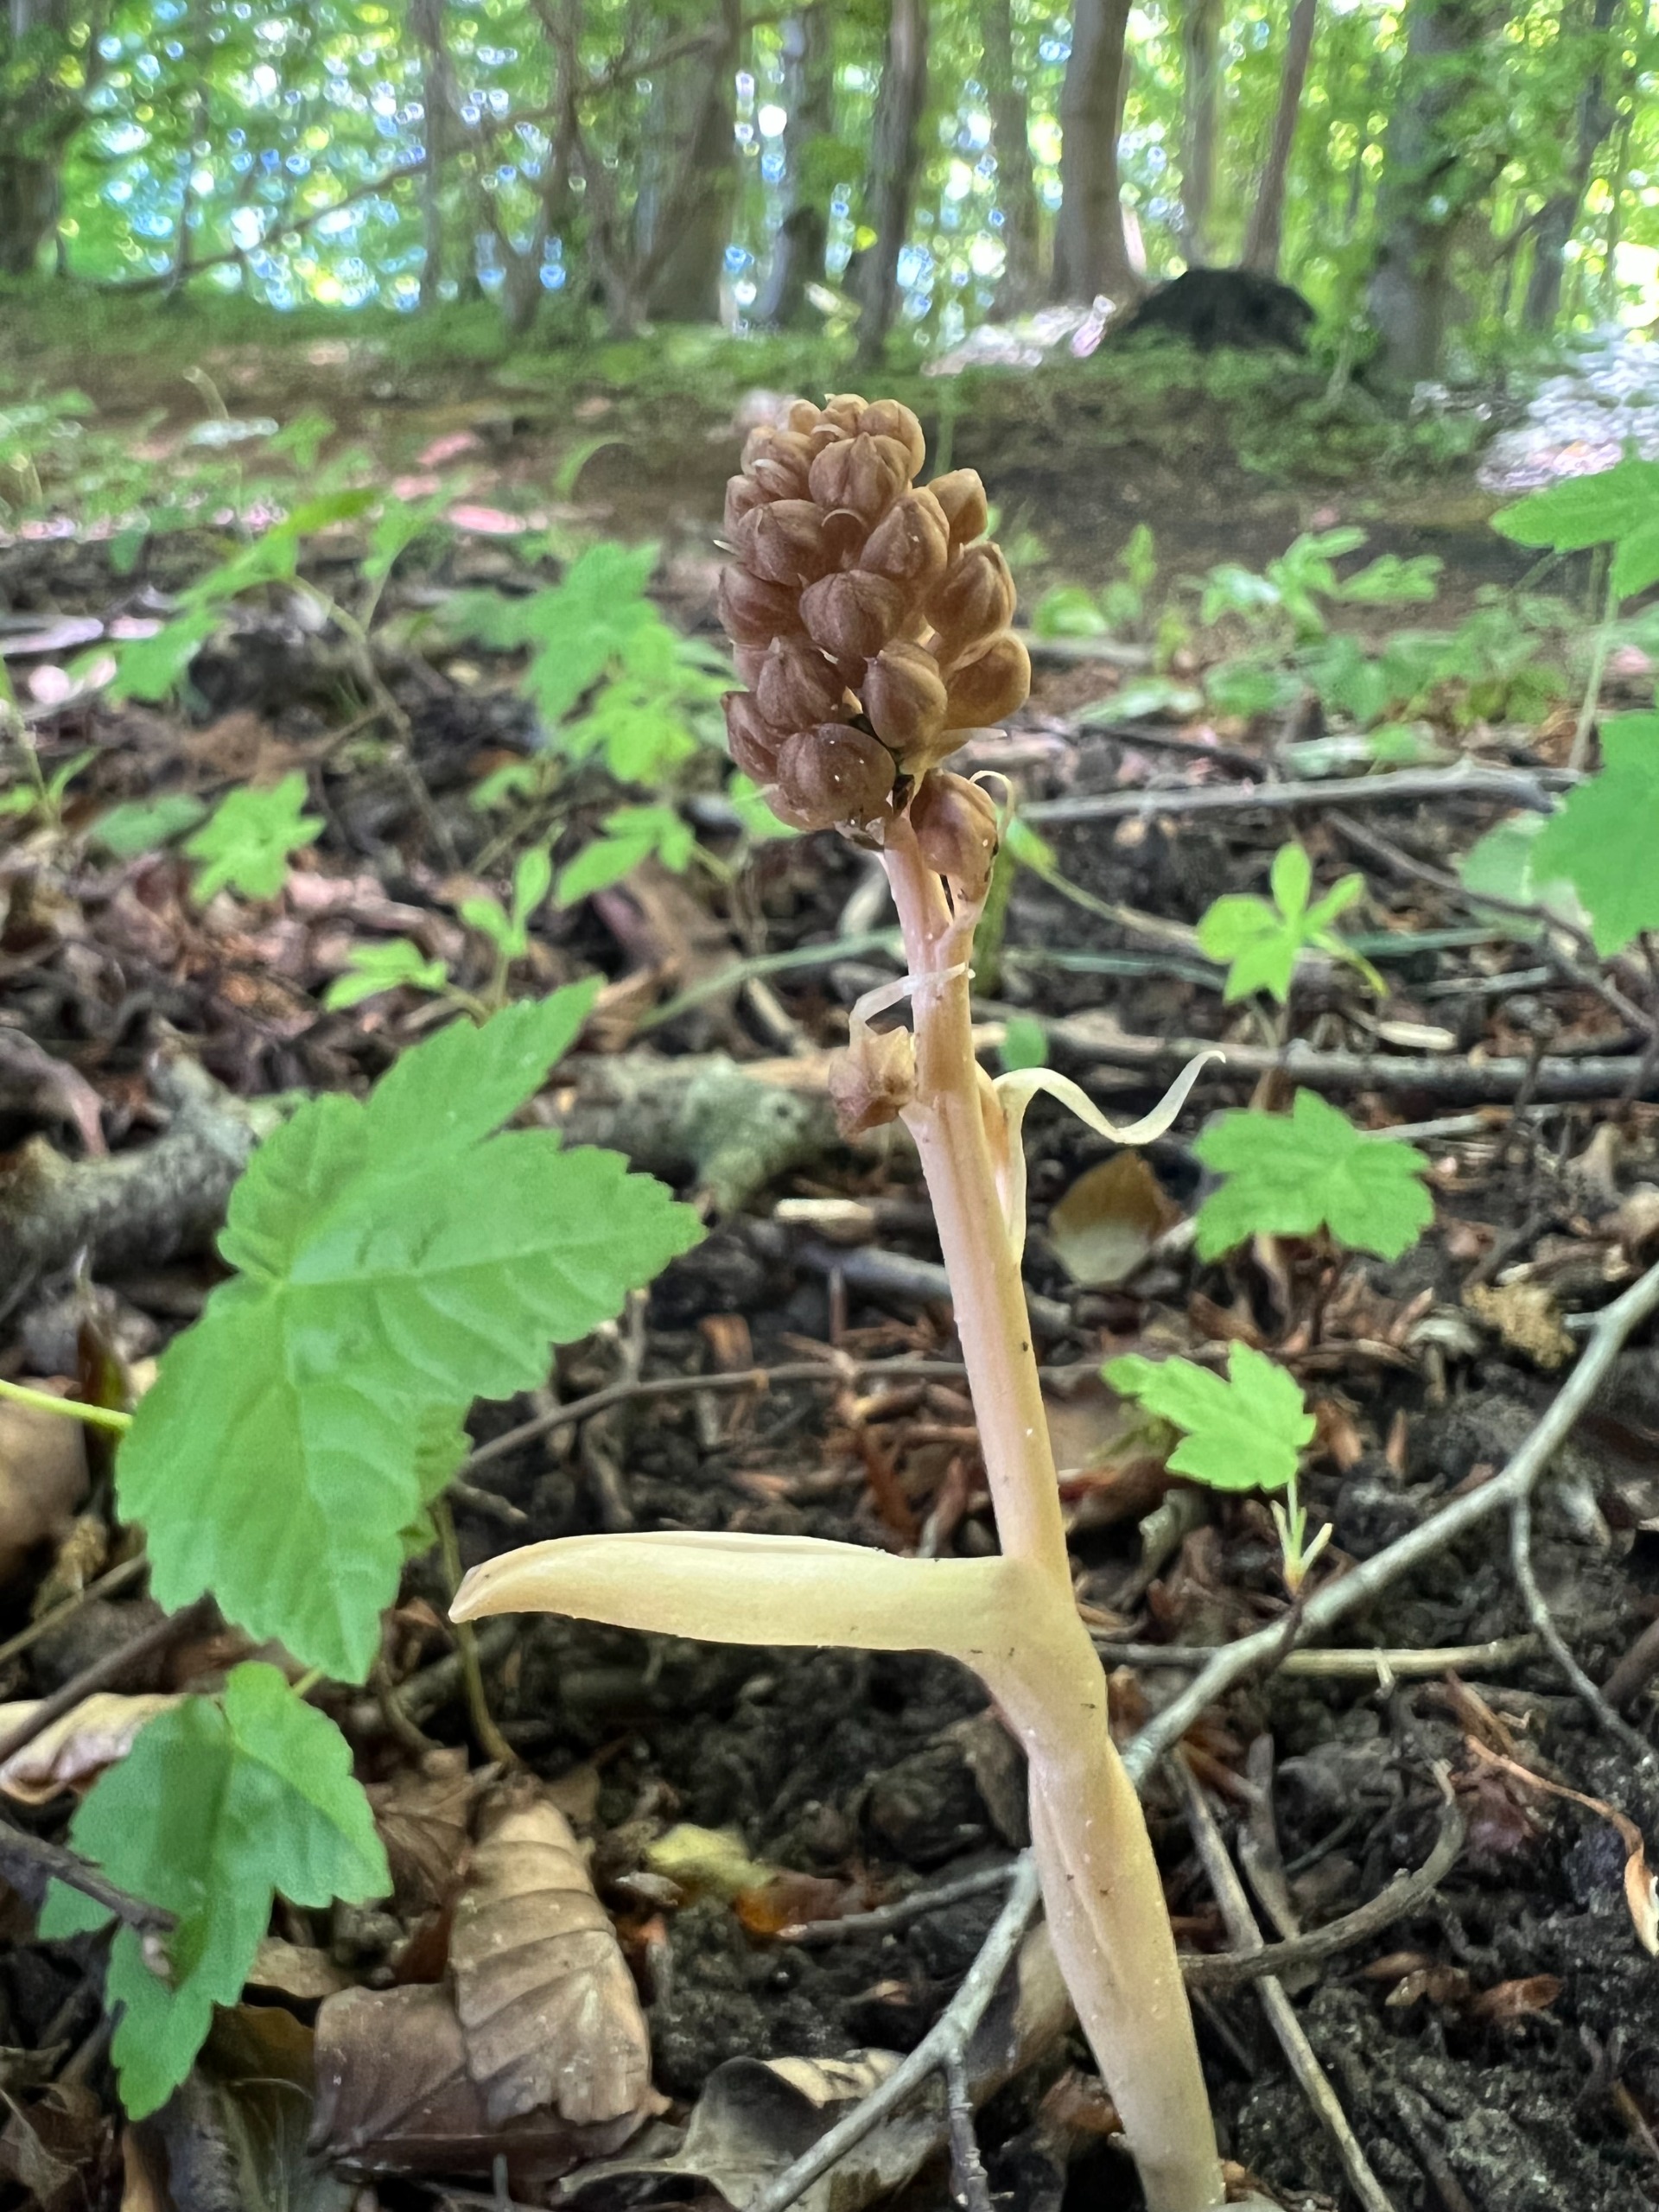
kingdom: Plantae
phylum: Tracheophyta
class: Liliopsida
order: Asparagales
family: Orchidaceae
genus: Neottia
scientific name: Neottia nidus-avis
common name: Rederod
